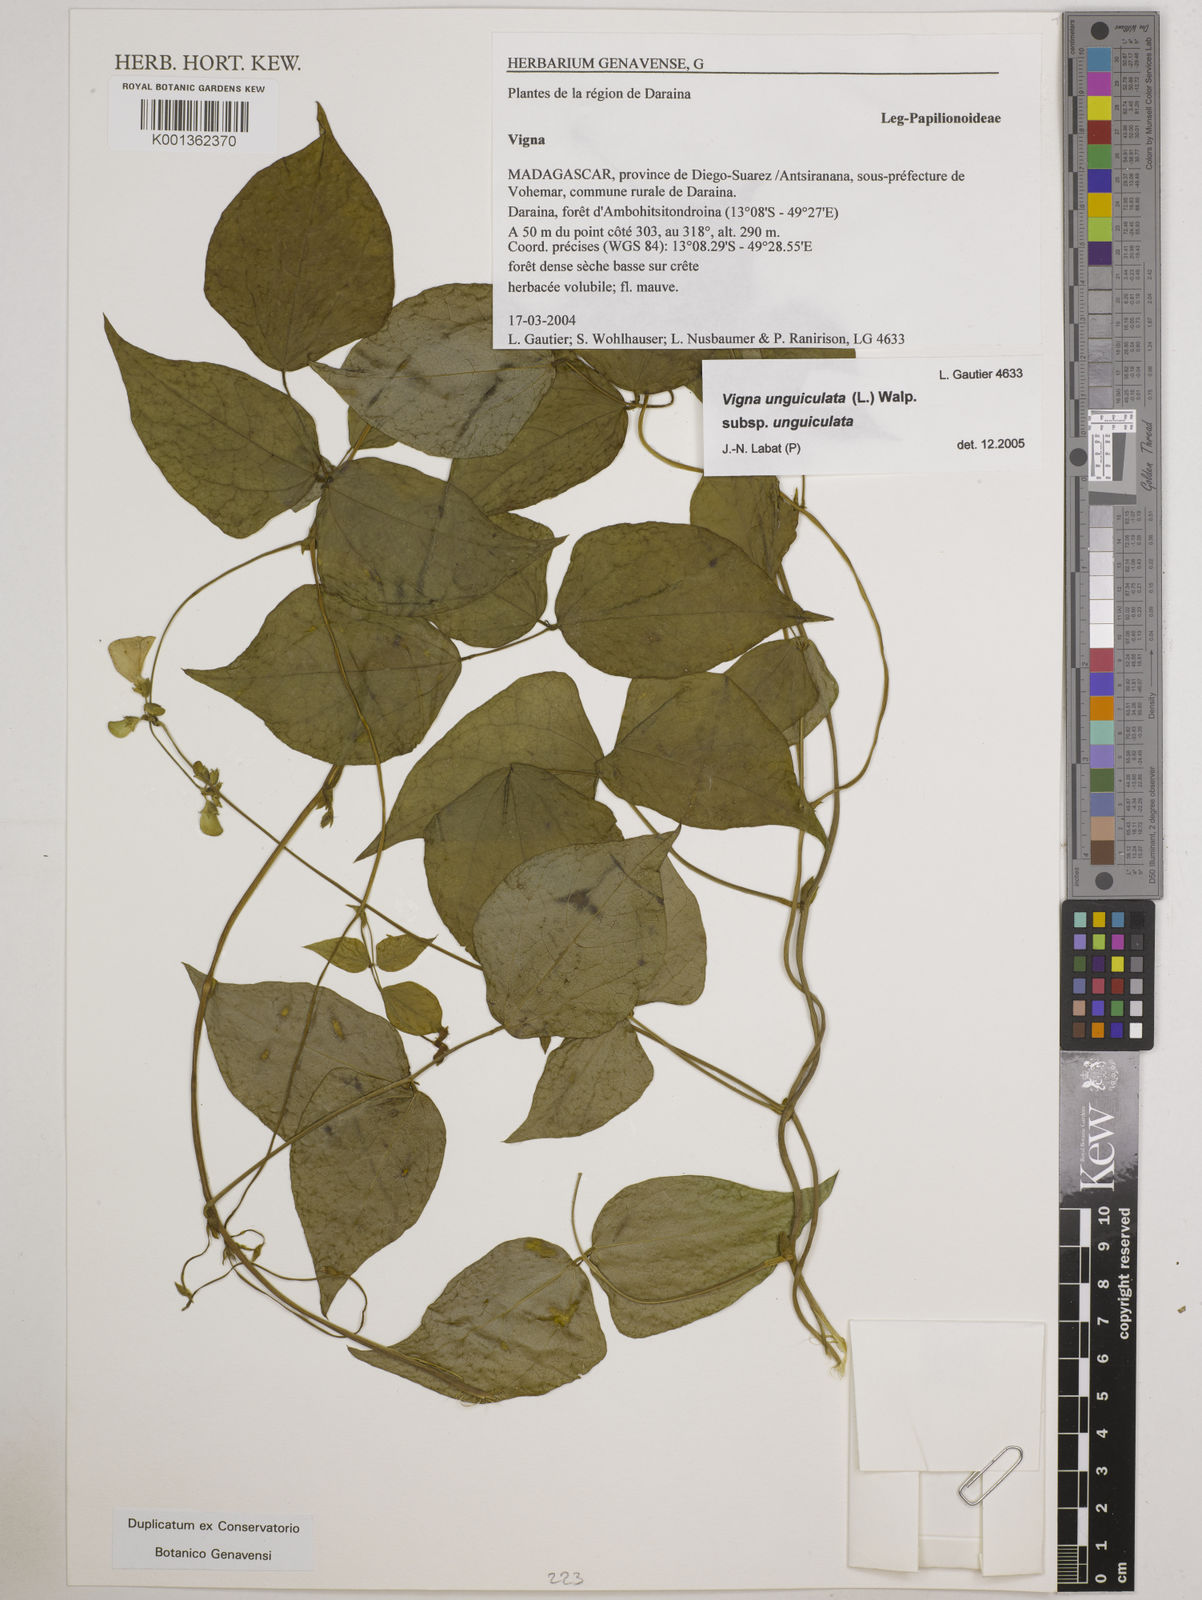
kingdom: Plantae
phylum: Tracheophyta
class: Magnoliopsida
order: Fabales
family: Fabaceae
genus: Vigna
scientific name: Vigna
